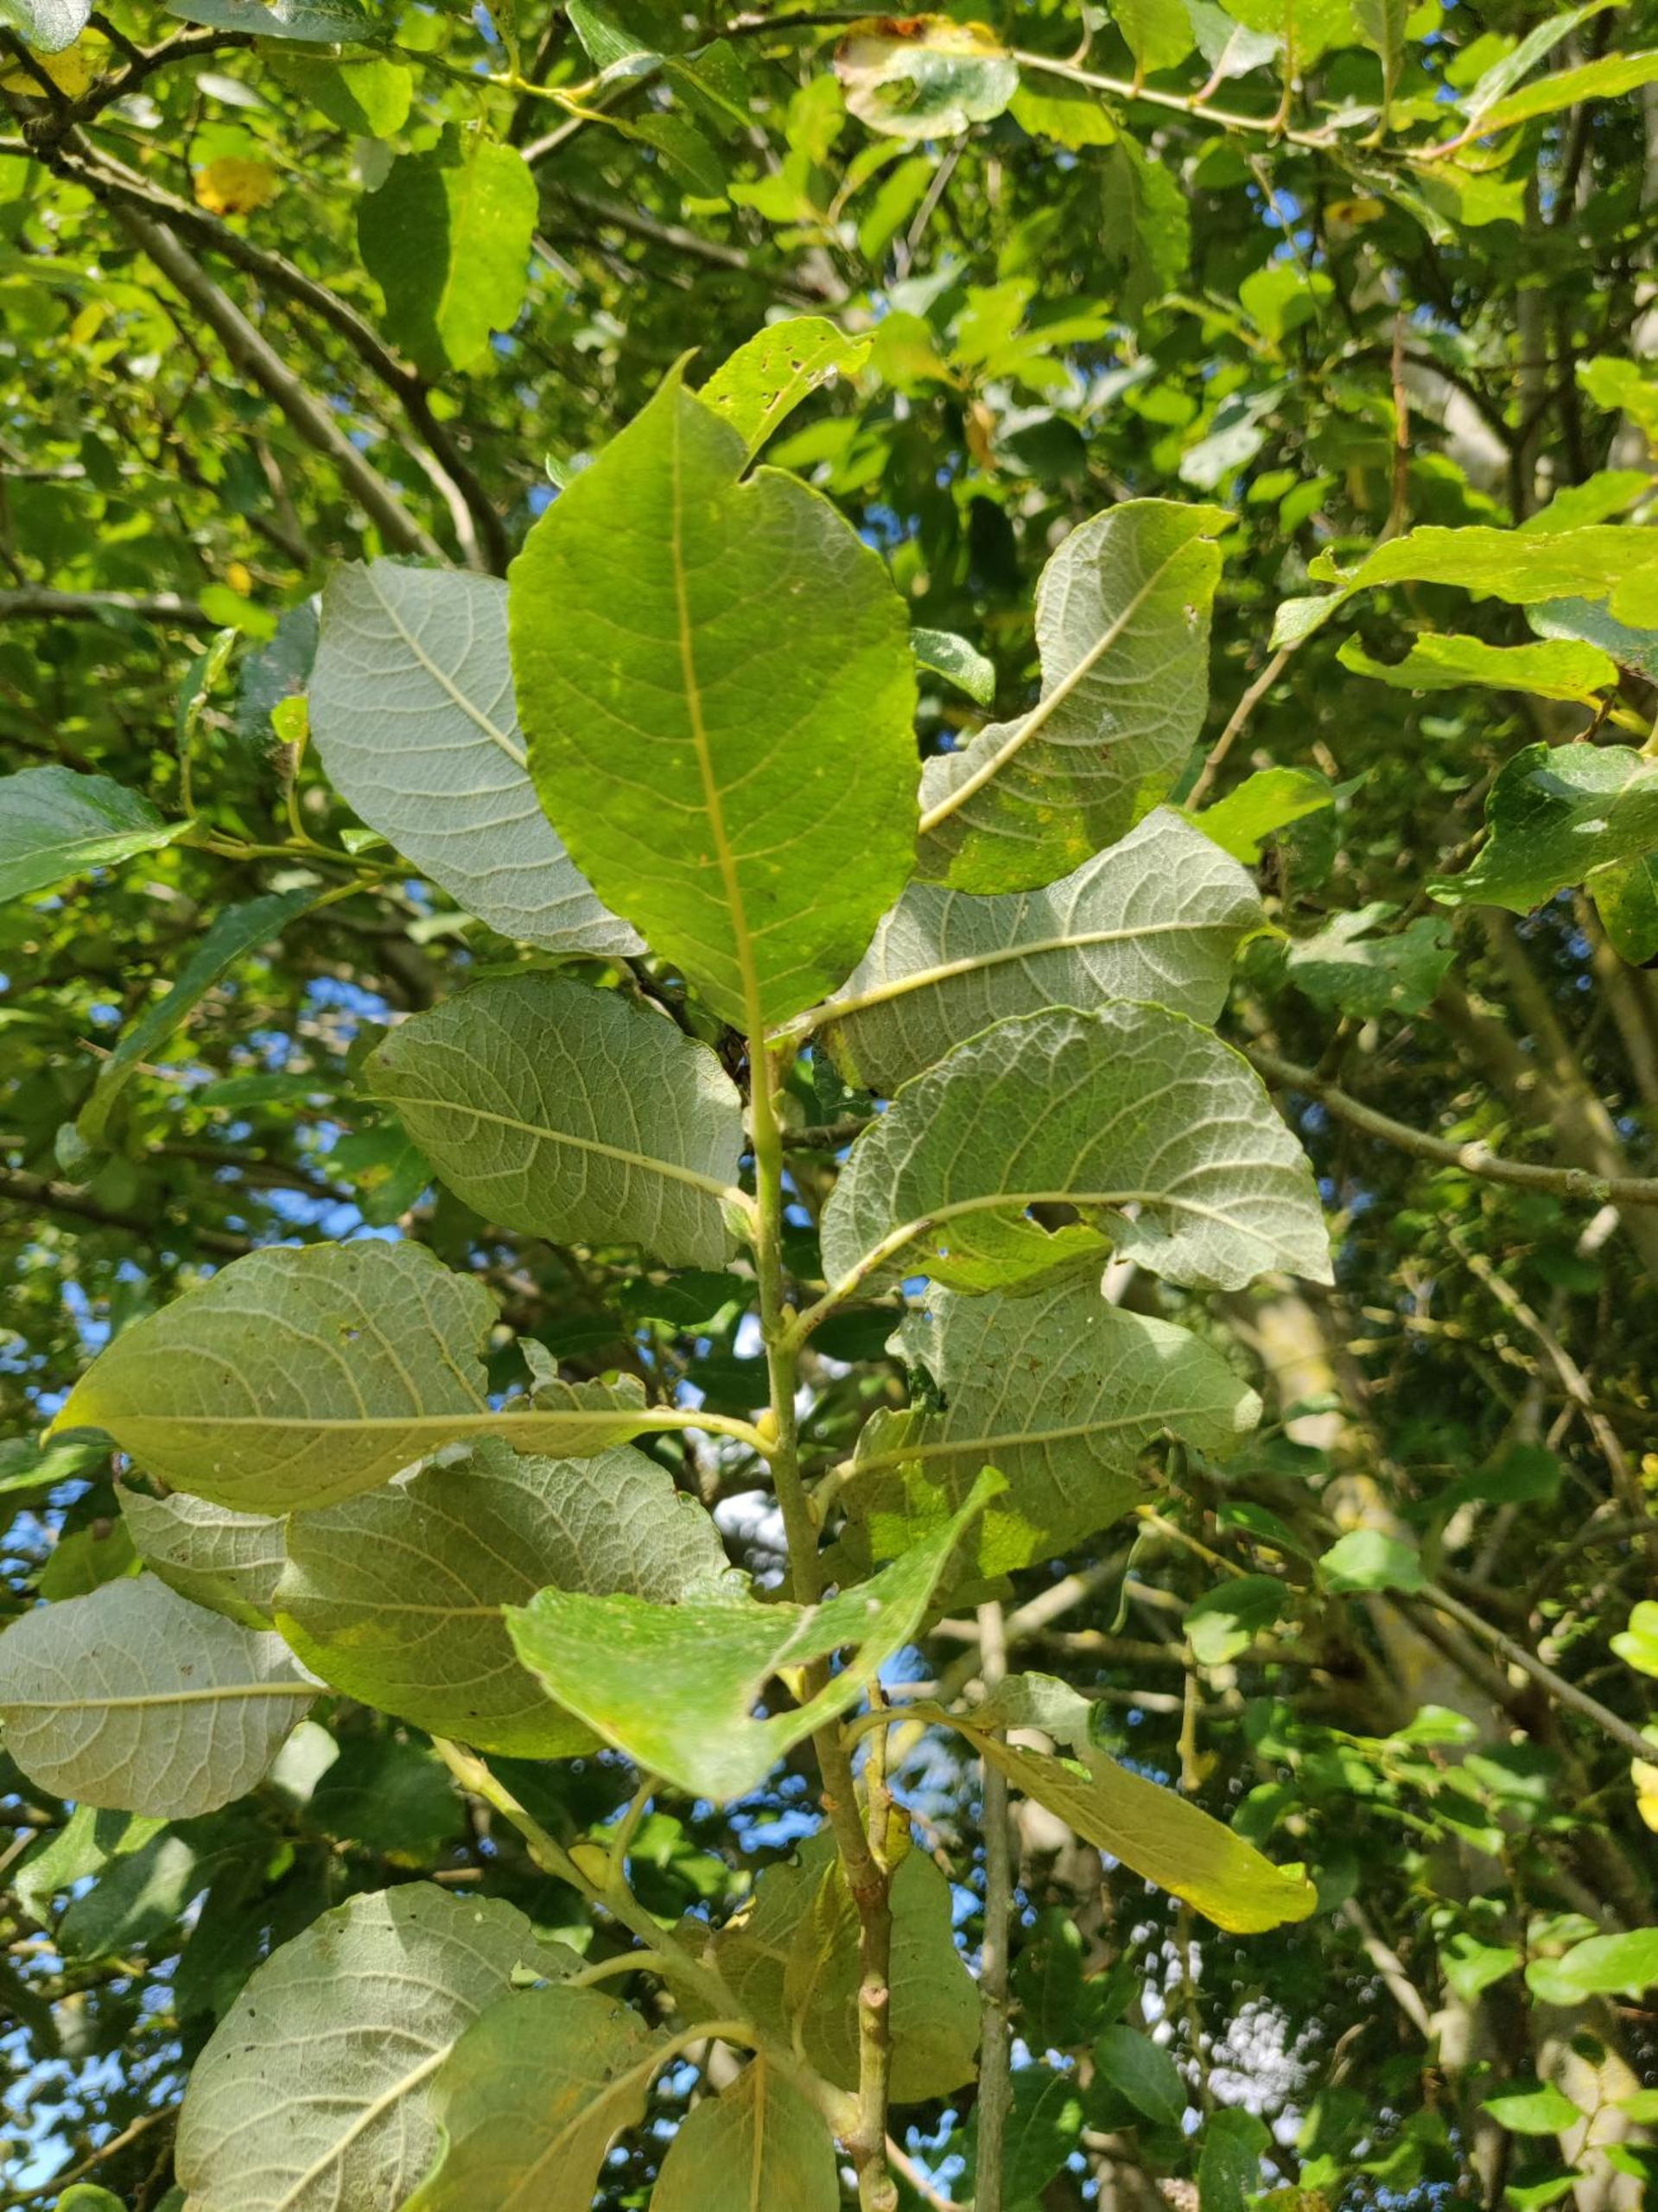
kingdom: Plantae
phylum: Tracheophyta
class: Magnoliopsida
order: Malpighiales
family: Salicaceae
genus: Salix
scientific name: Salix caprea
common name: Selje-pil
